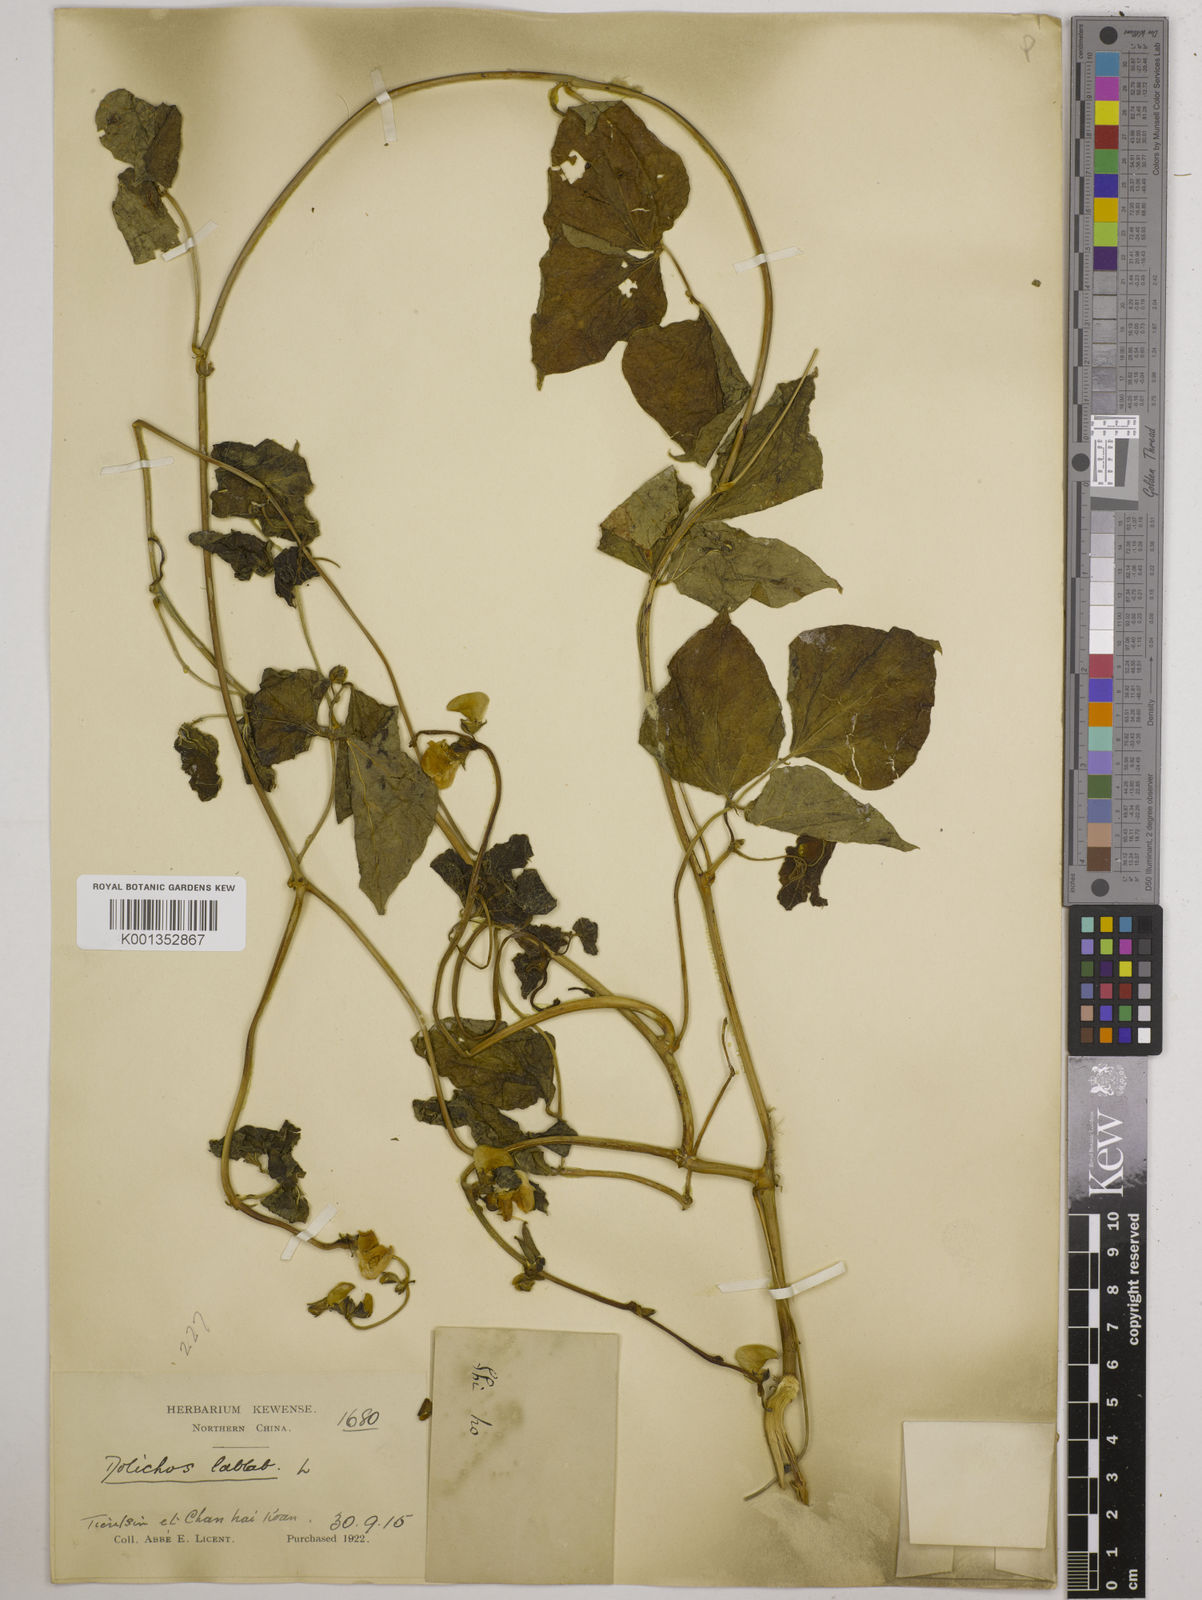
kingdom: Plantae
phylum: Tracheophyta
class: Magnoliopsida
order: Fabales
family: Fabaceae
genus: Lablab
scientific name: Lablab purpureus
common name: Lablab-bean
